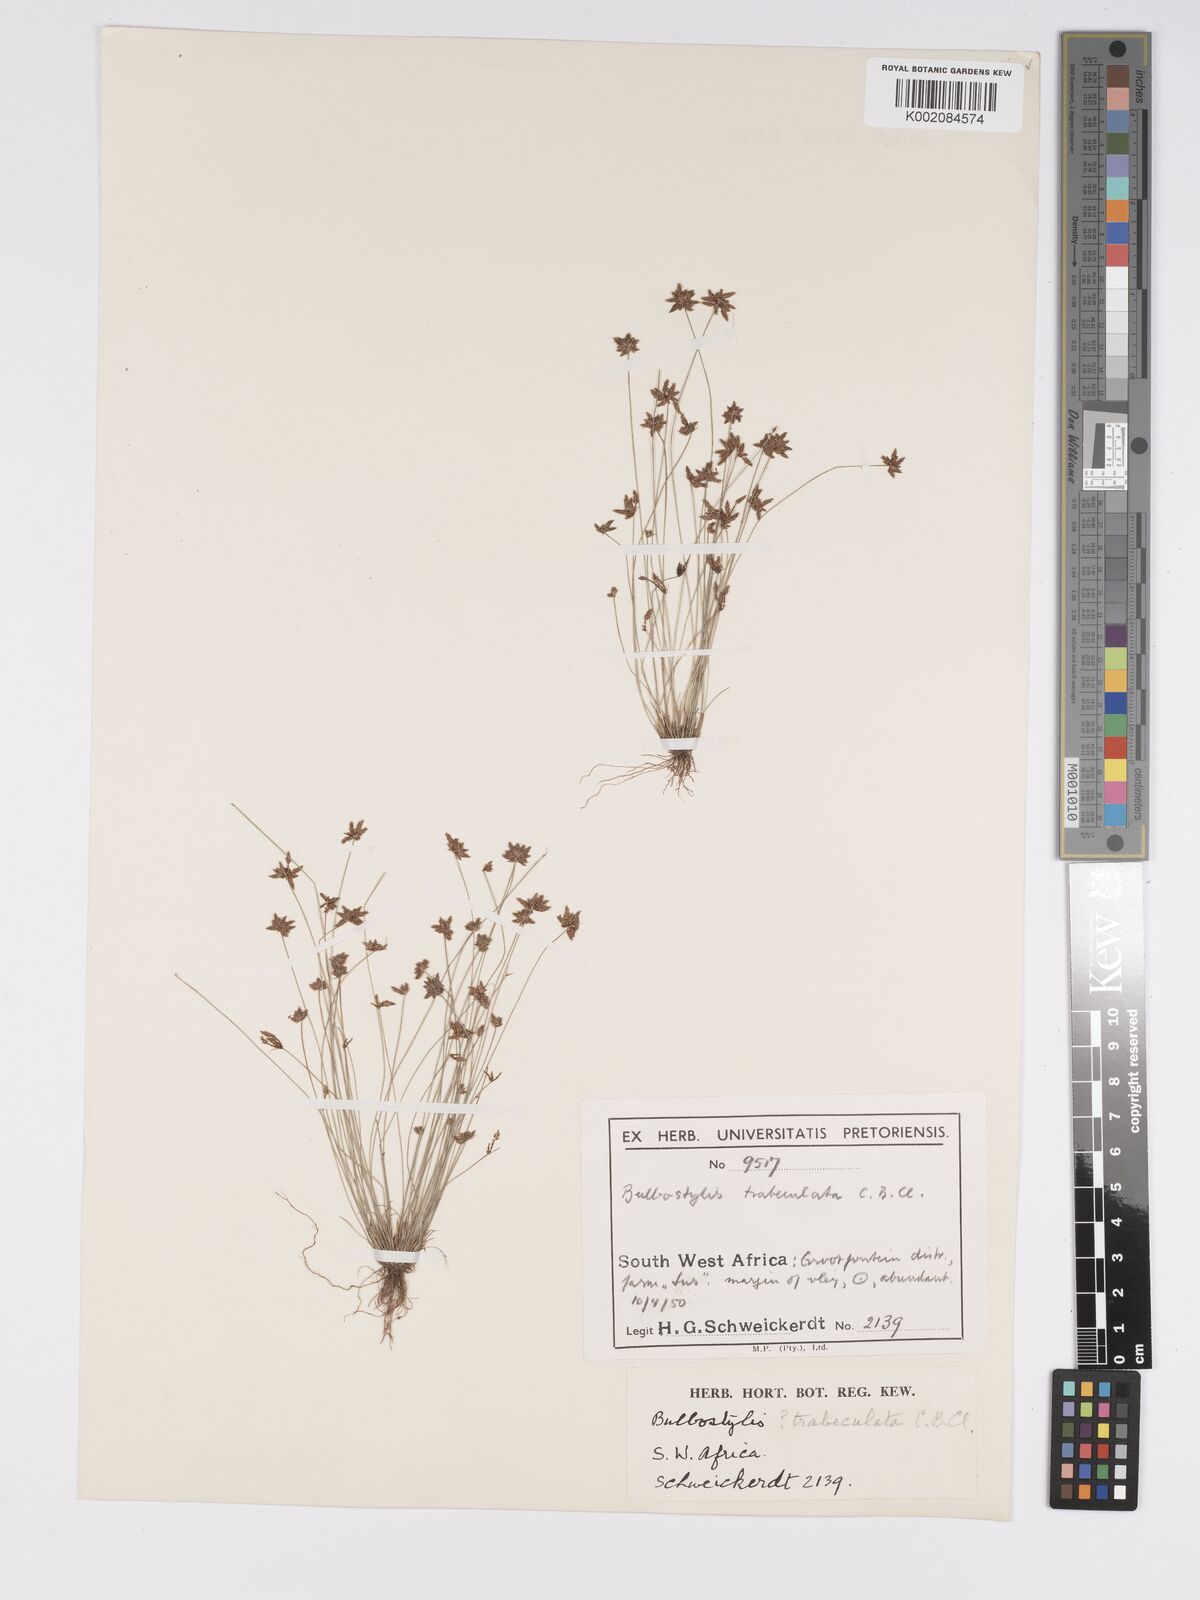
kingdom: Plantae
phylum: Tracheophyta
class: Liliopsida
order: Poales
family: Cyperaceae
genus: Bulbostylis
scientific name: Bulbostylis trabeculata
